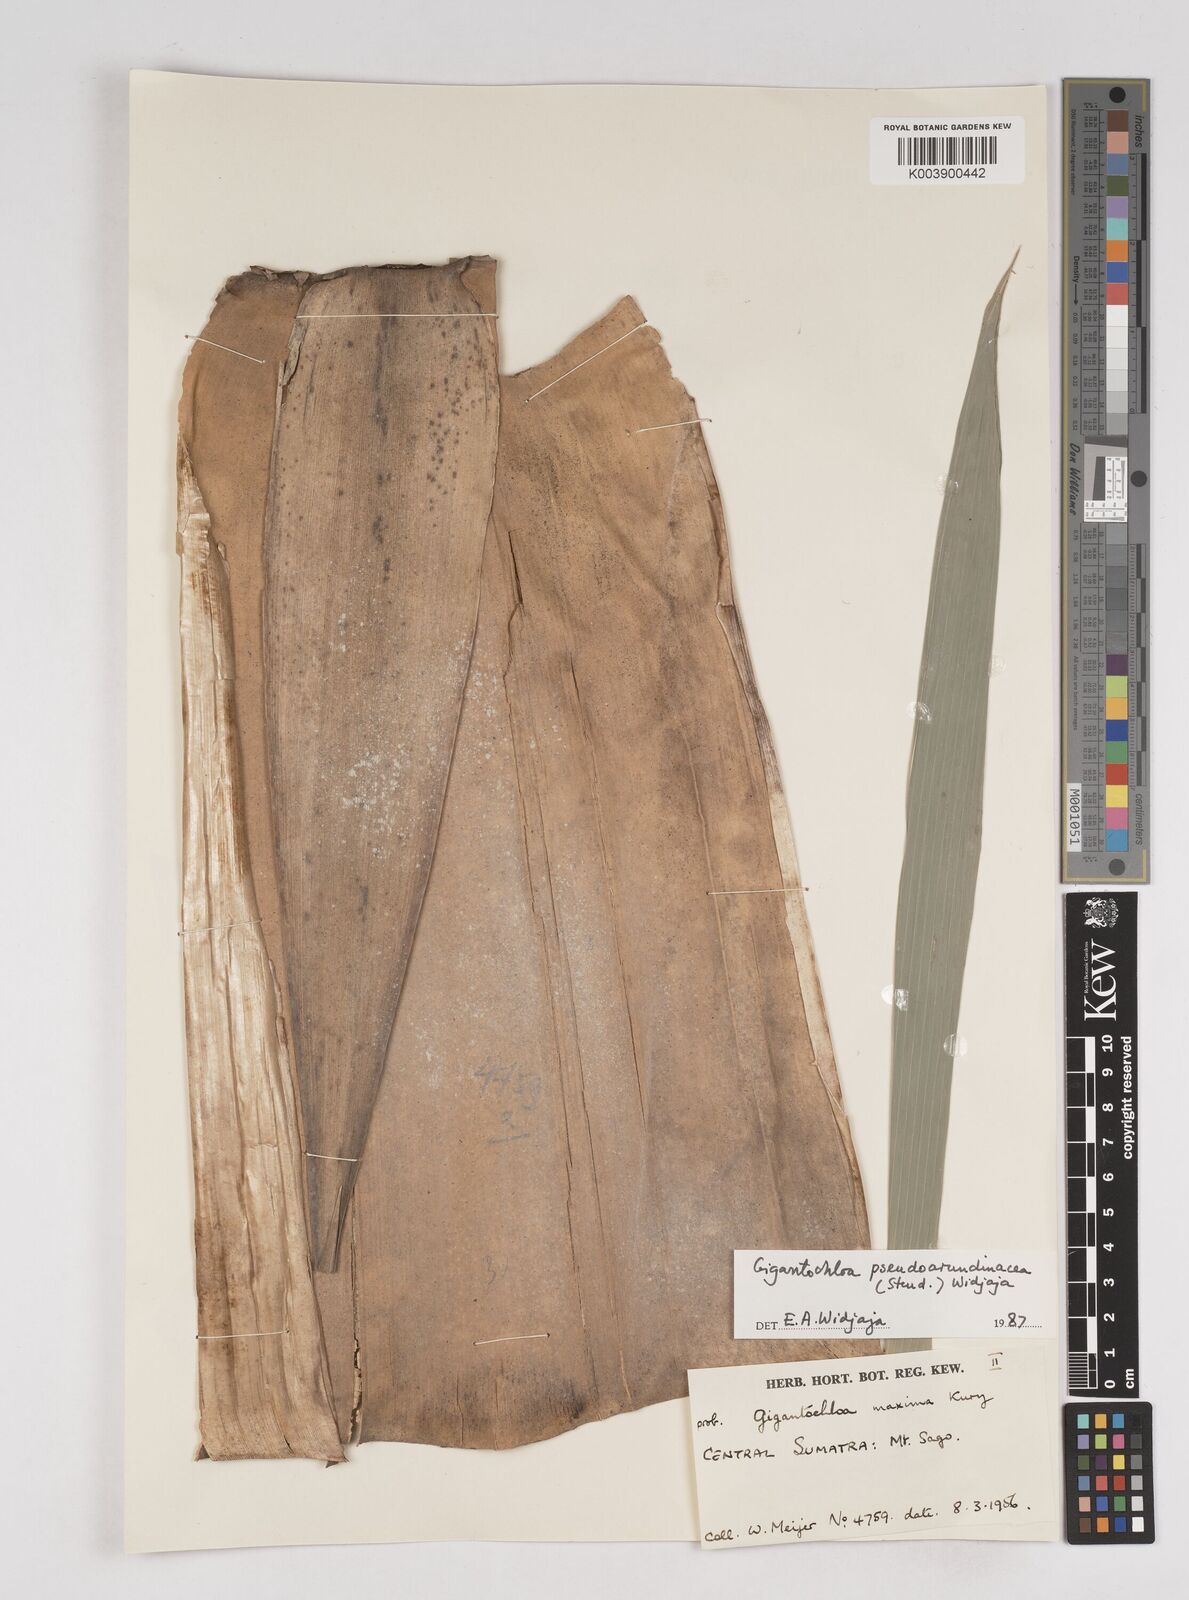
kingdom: Plantae
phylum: Tracheophyta
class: Liliopsida
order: Poales
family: Poaceae
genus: Gigantochloa
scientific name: Gigantochloa verticillata
